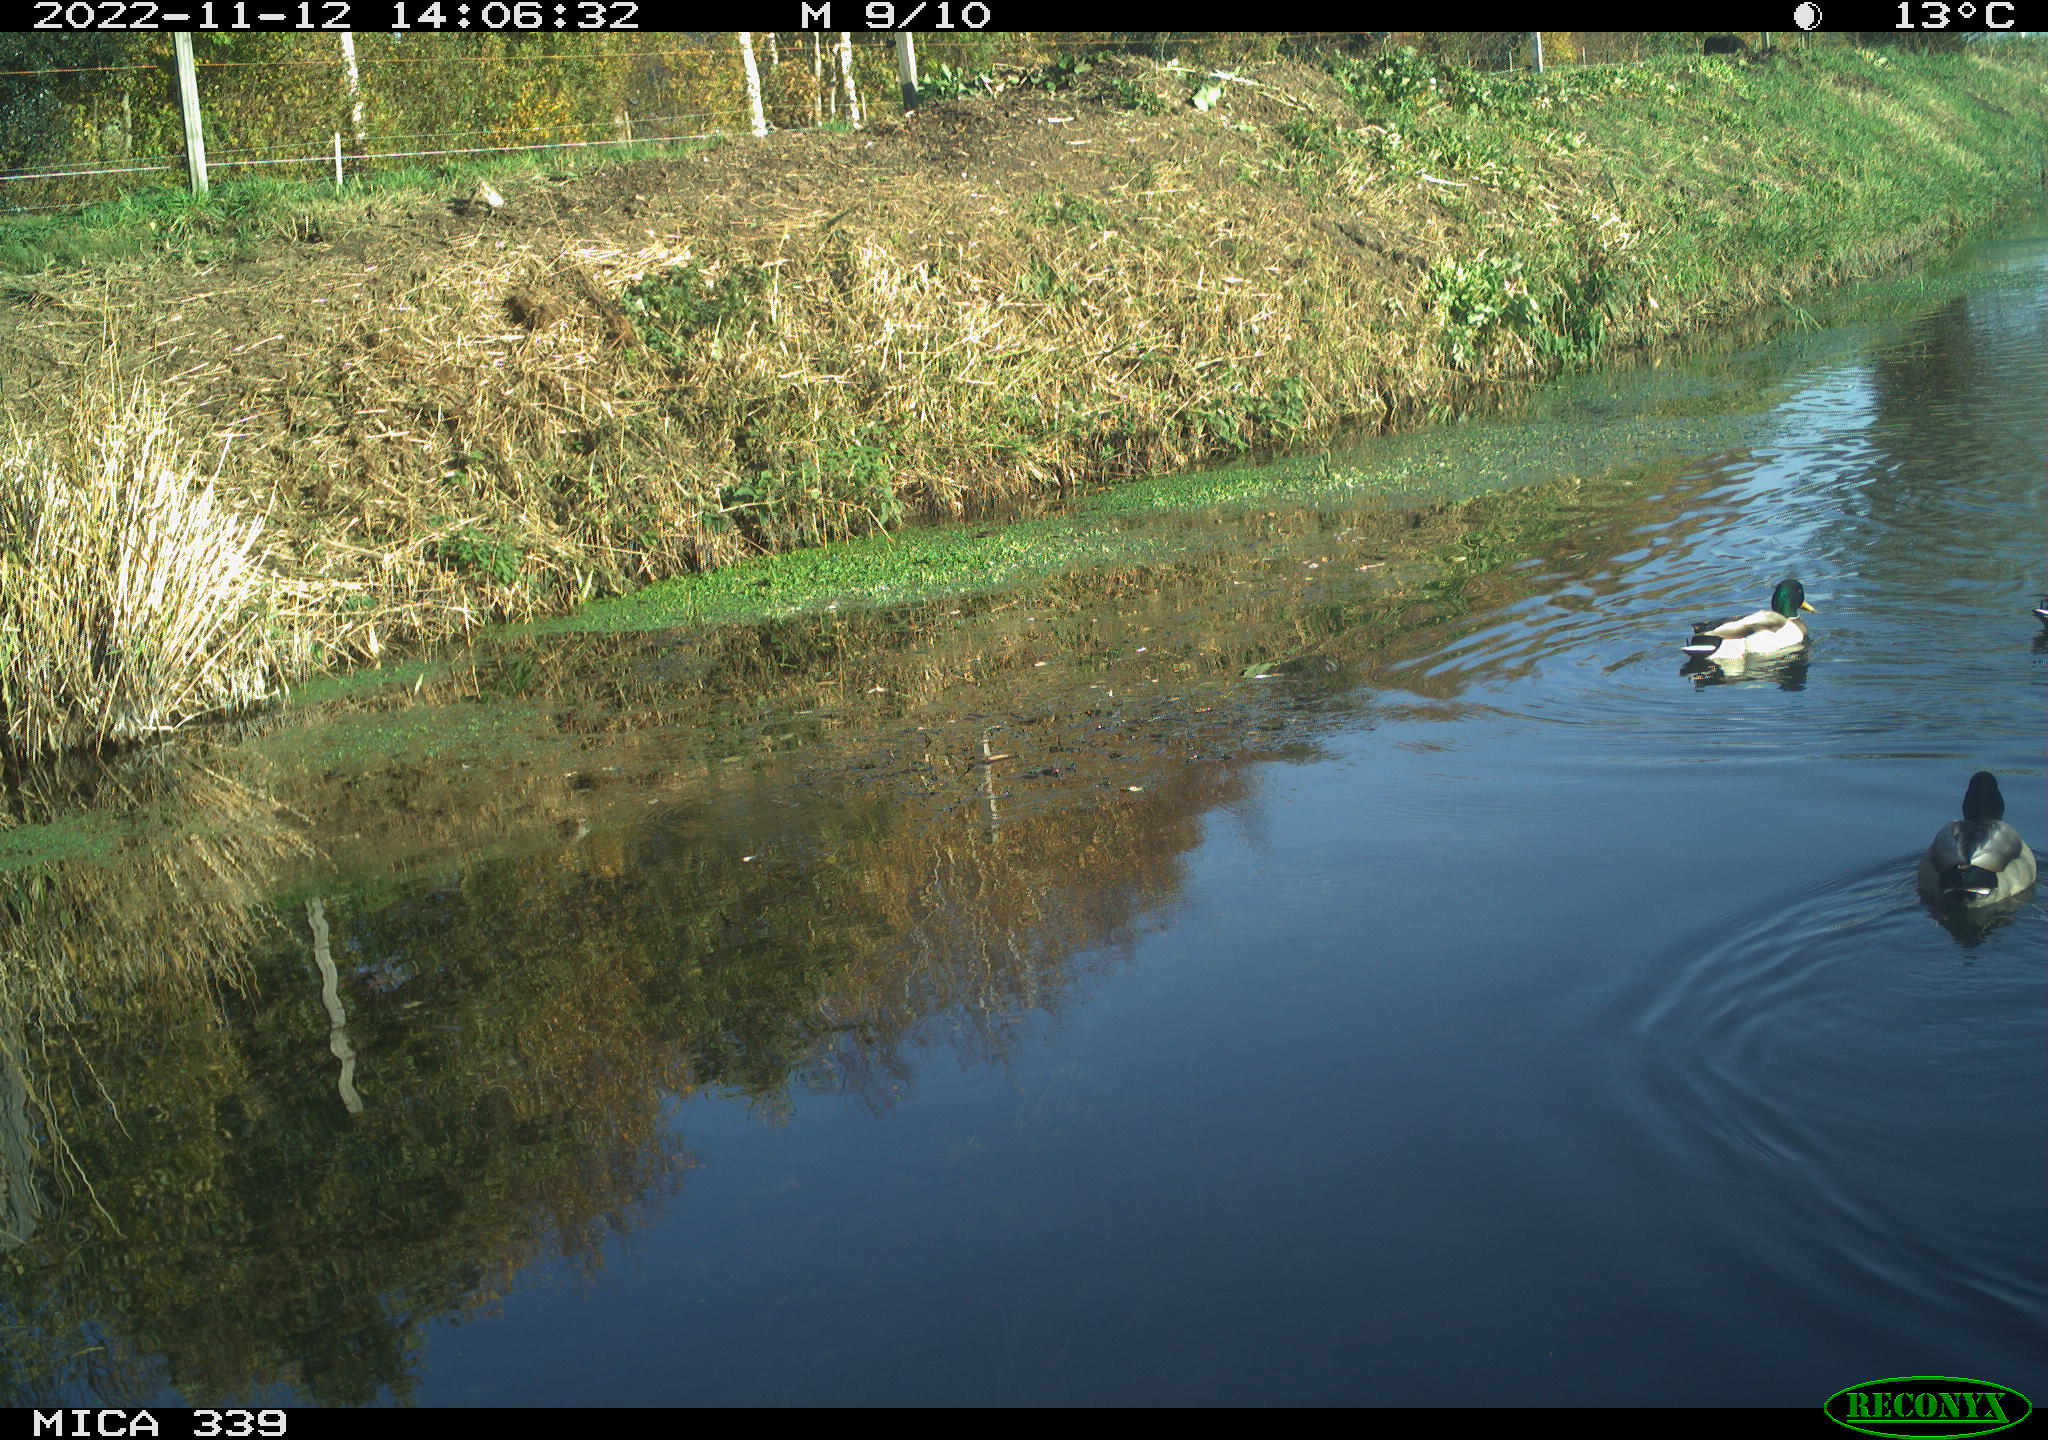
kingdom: Animalia
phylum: Chordata
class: Aves
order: Anseriformes
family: Anatidae
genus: Anas
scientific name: Anas platyrhynchos
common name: Mallard
